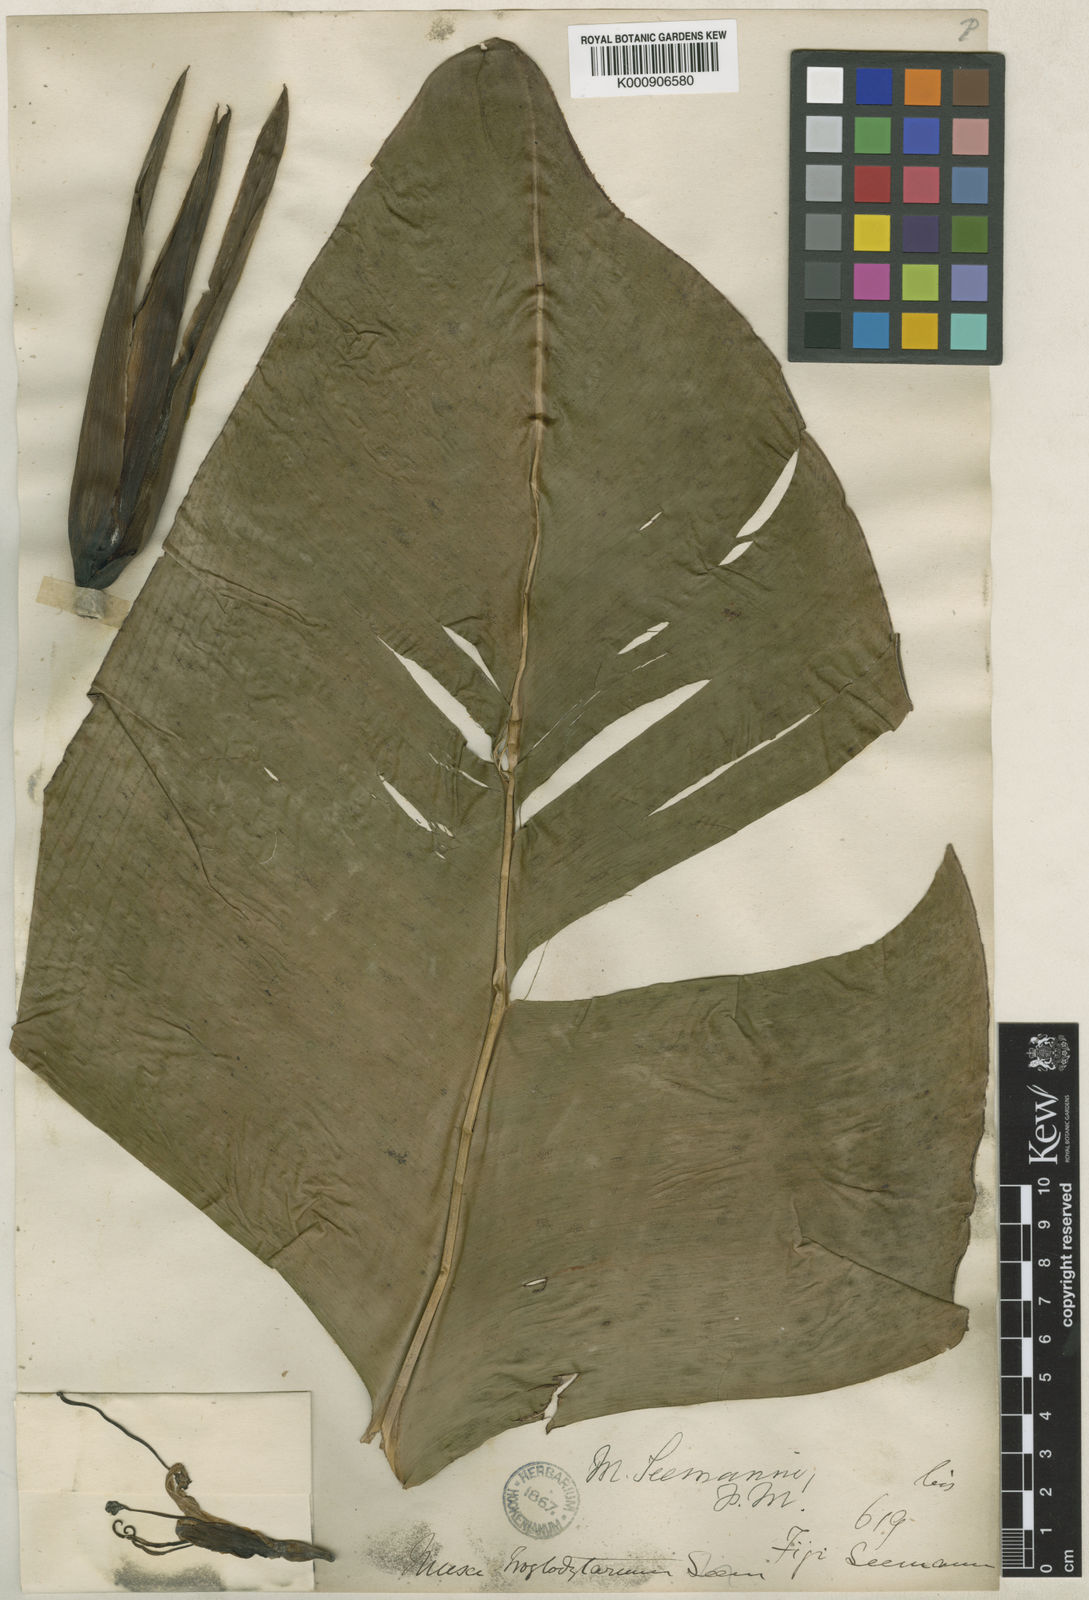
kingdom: Plantae
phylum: Tracheophyta
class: Liliopsida
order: Zingiberales
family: Musaceae
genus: Musa
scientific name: Musa troglodytarum
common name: Fe'i banana
